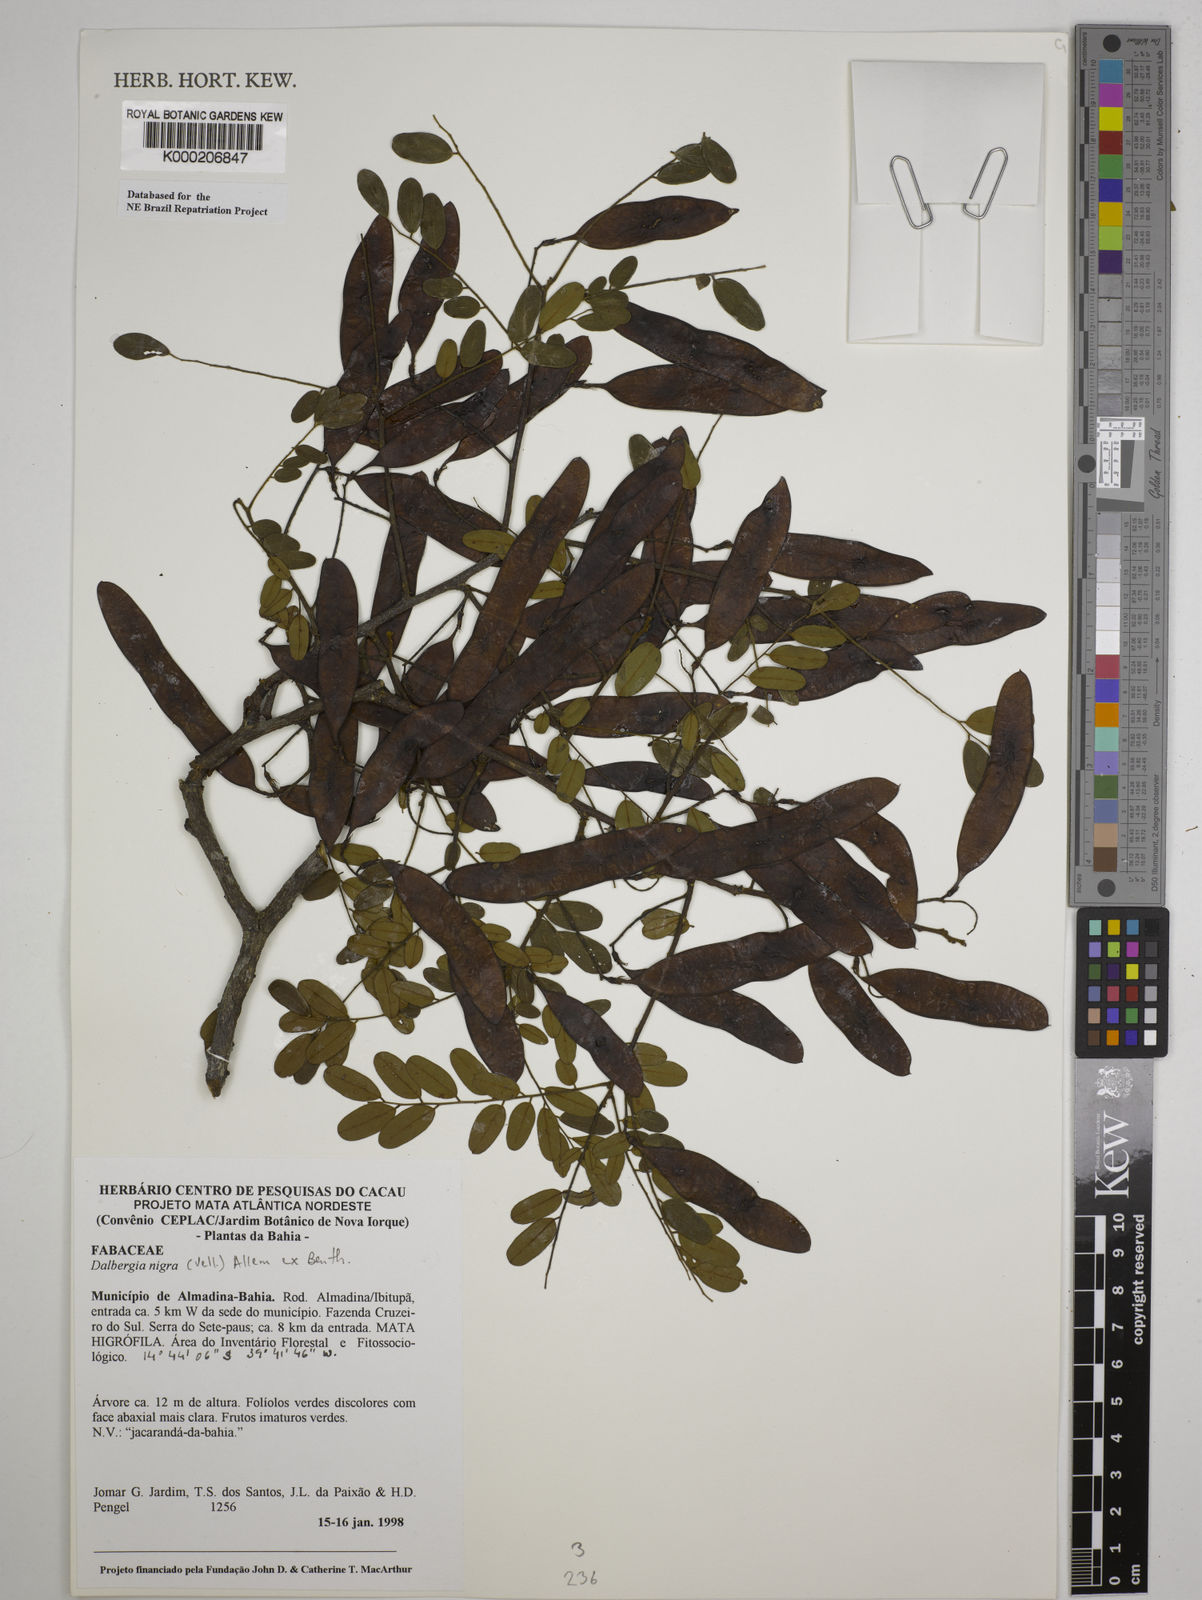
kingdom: Plantae
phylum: Tracheophyta
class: Magnoliopsida
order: Fabales
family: Fabaceae
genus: Dalbergia
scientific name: Dalbergia nigra
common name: Bahia rosewood
